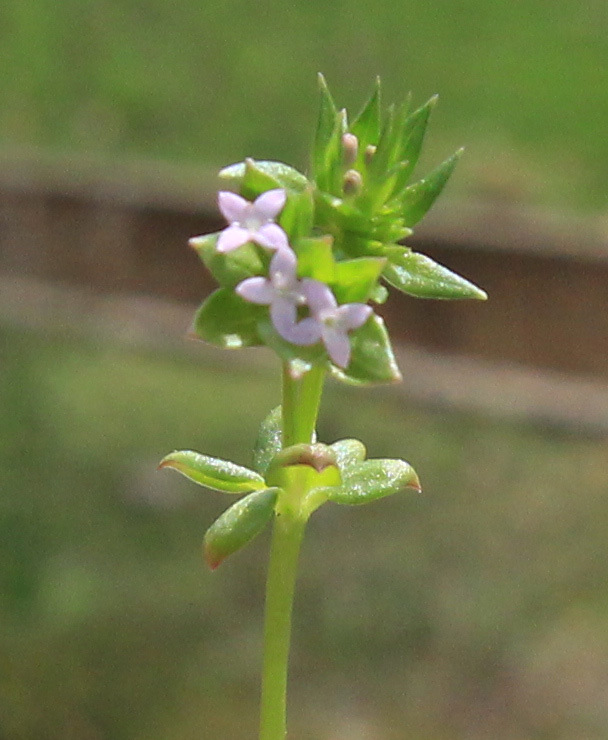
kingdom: Plantae
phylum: Tracheophyta
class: Magnoliopsida
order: Gentianales
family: Rubiaceae
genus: Sherardia
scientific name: Sherardia arvensis
